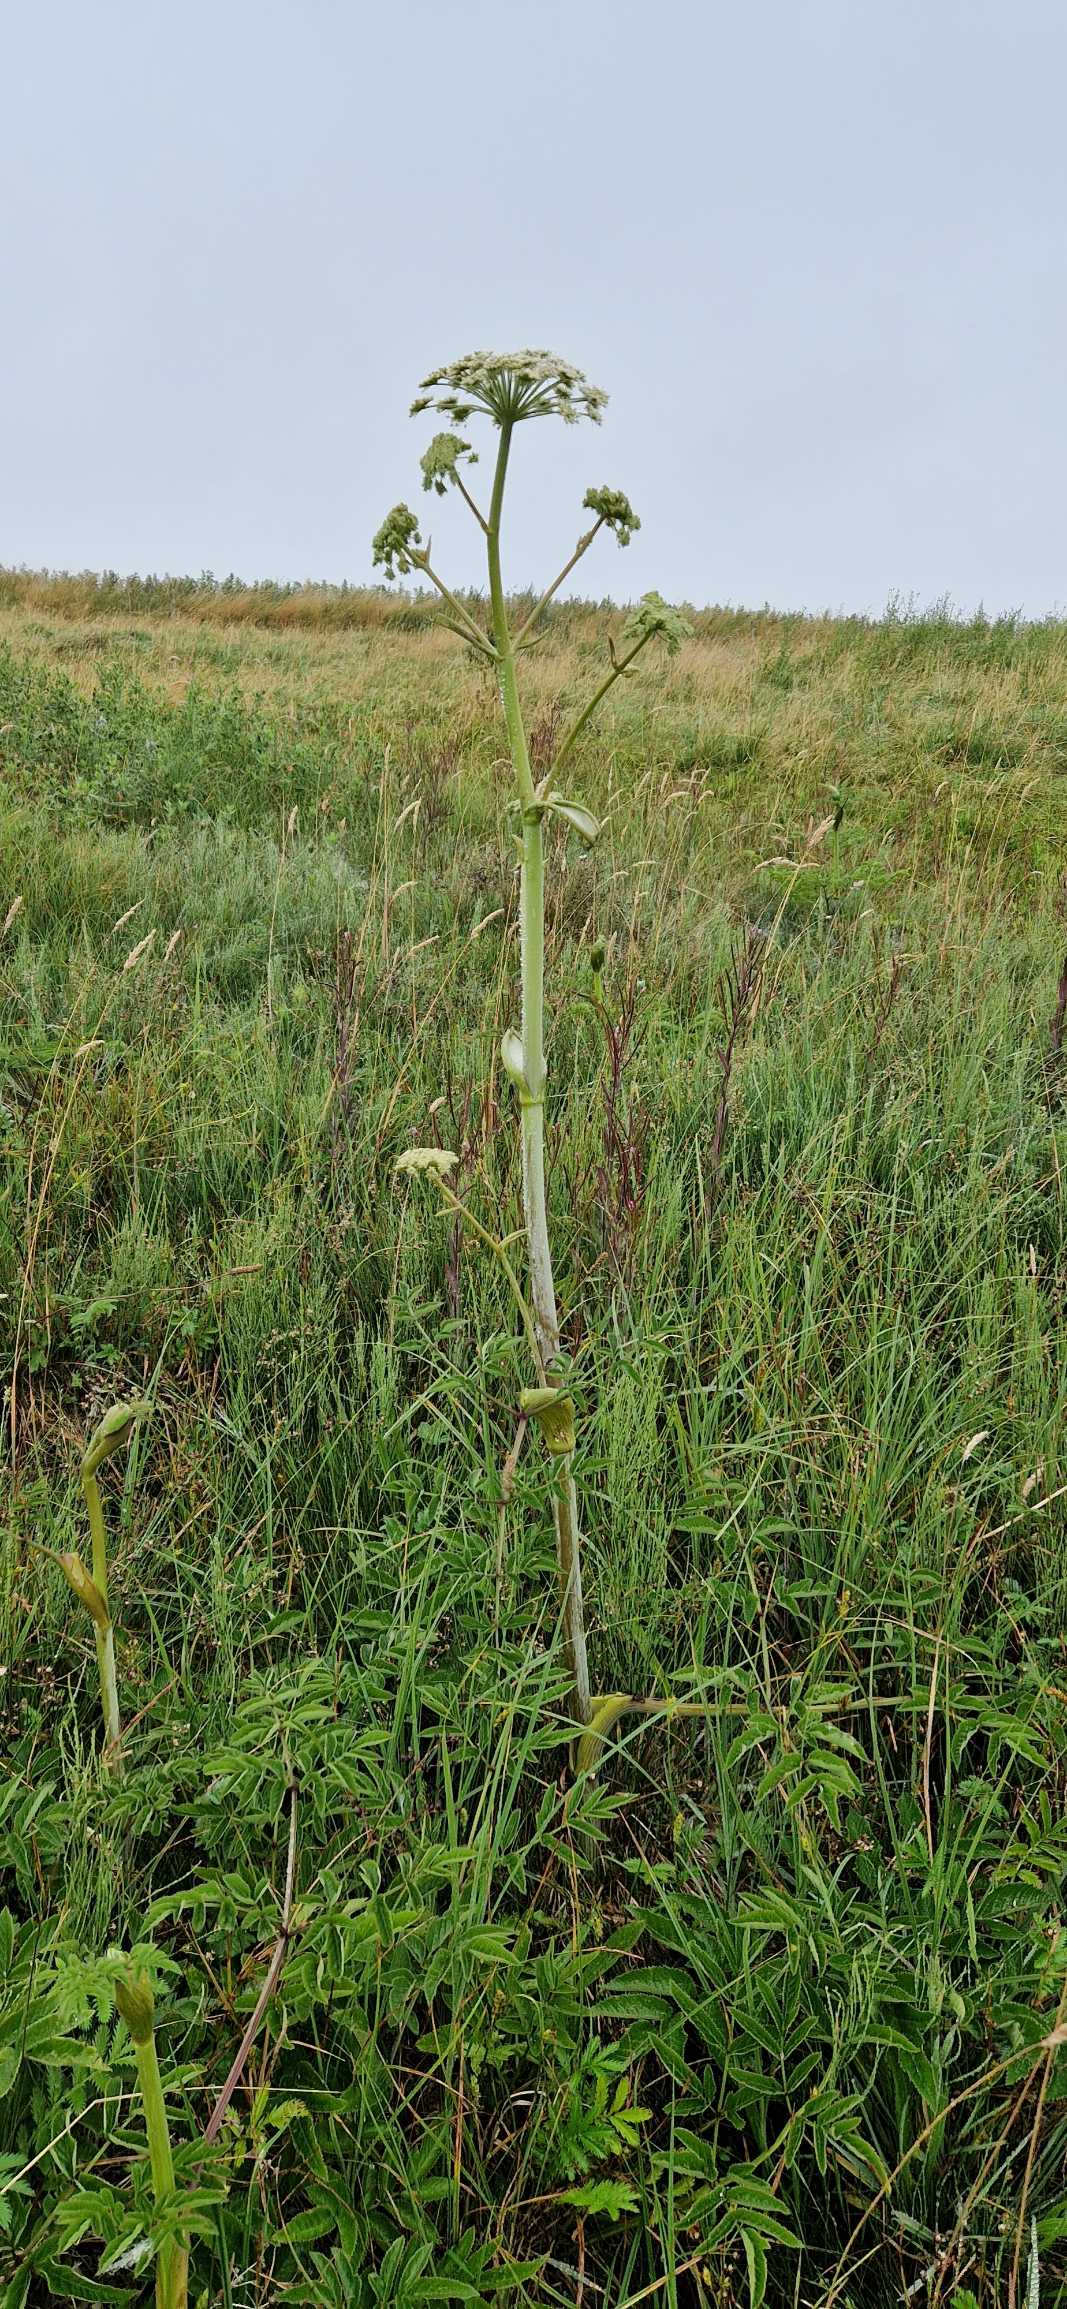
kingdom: Plantae
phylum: Tracheophyta
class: Magnoliopsida
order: Apiales
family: Apiaceae
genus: Angelica
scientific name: Angelica sylvestris
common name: Angelik
